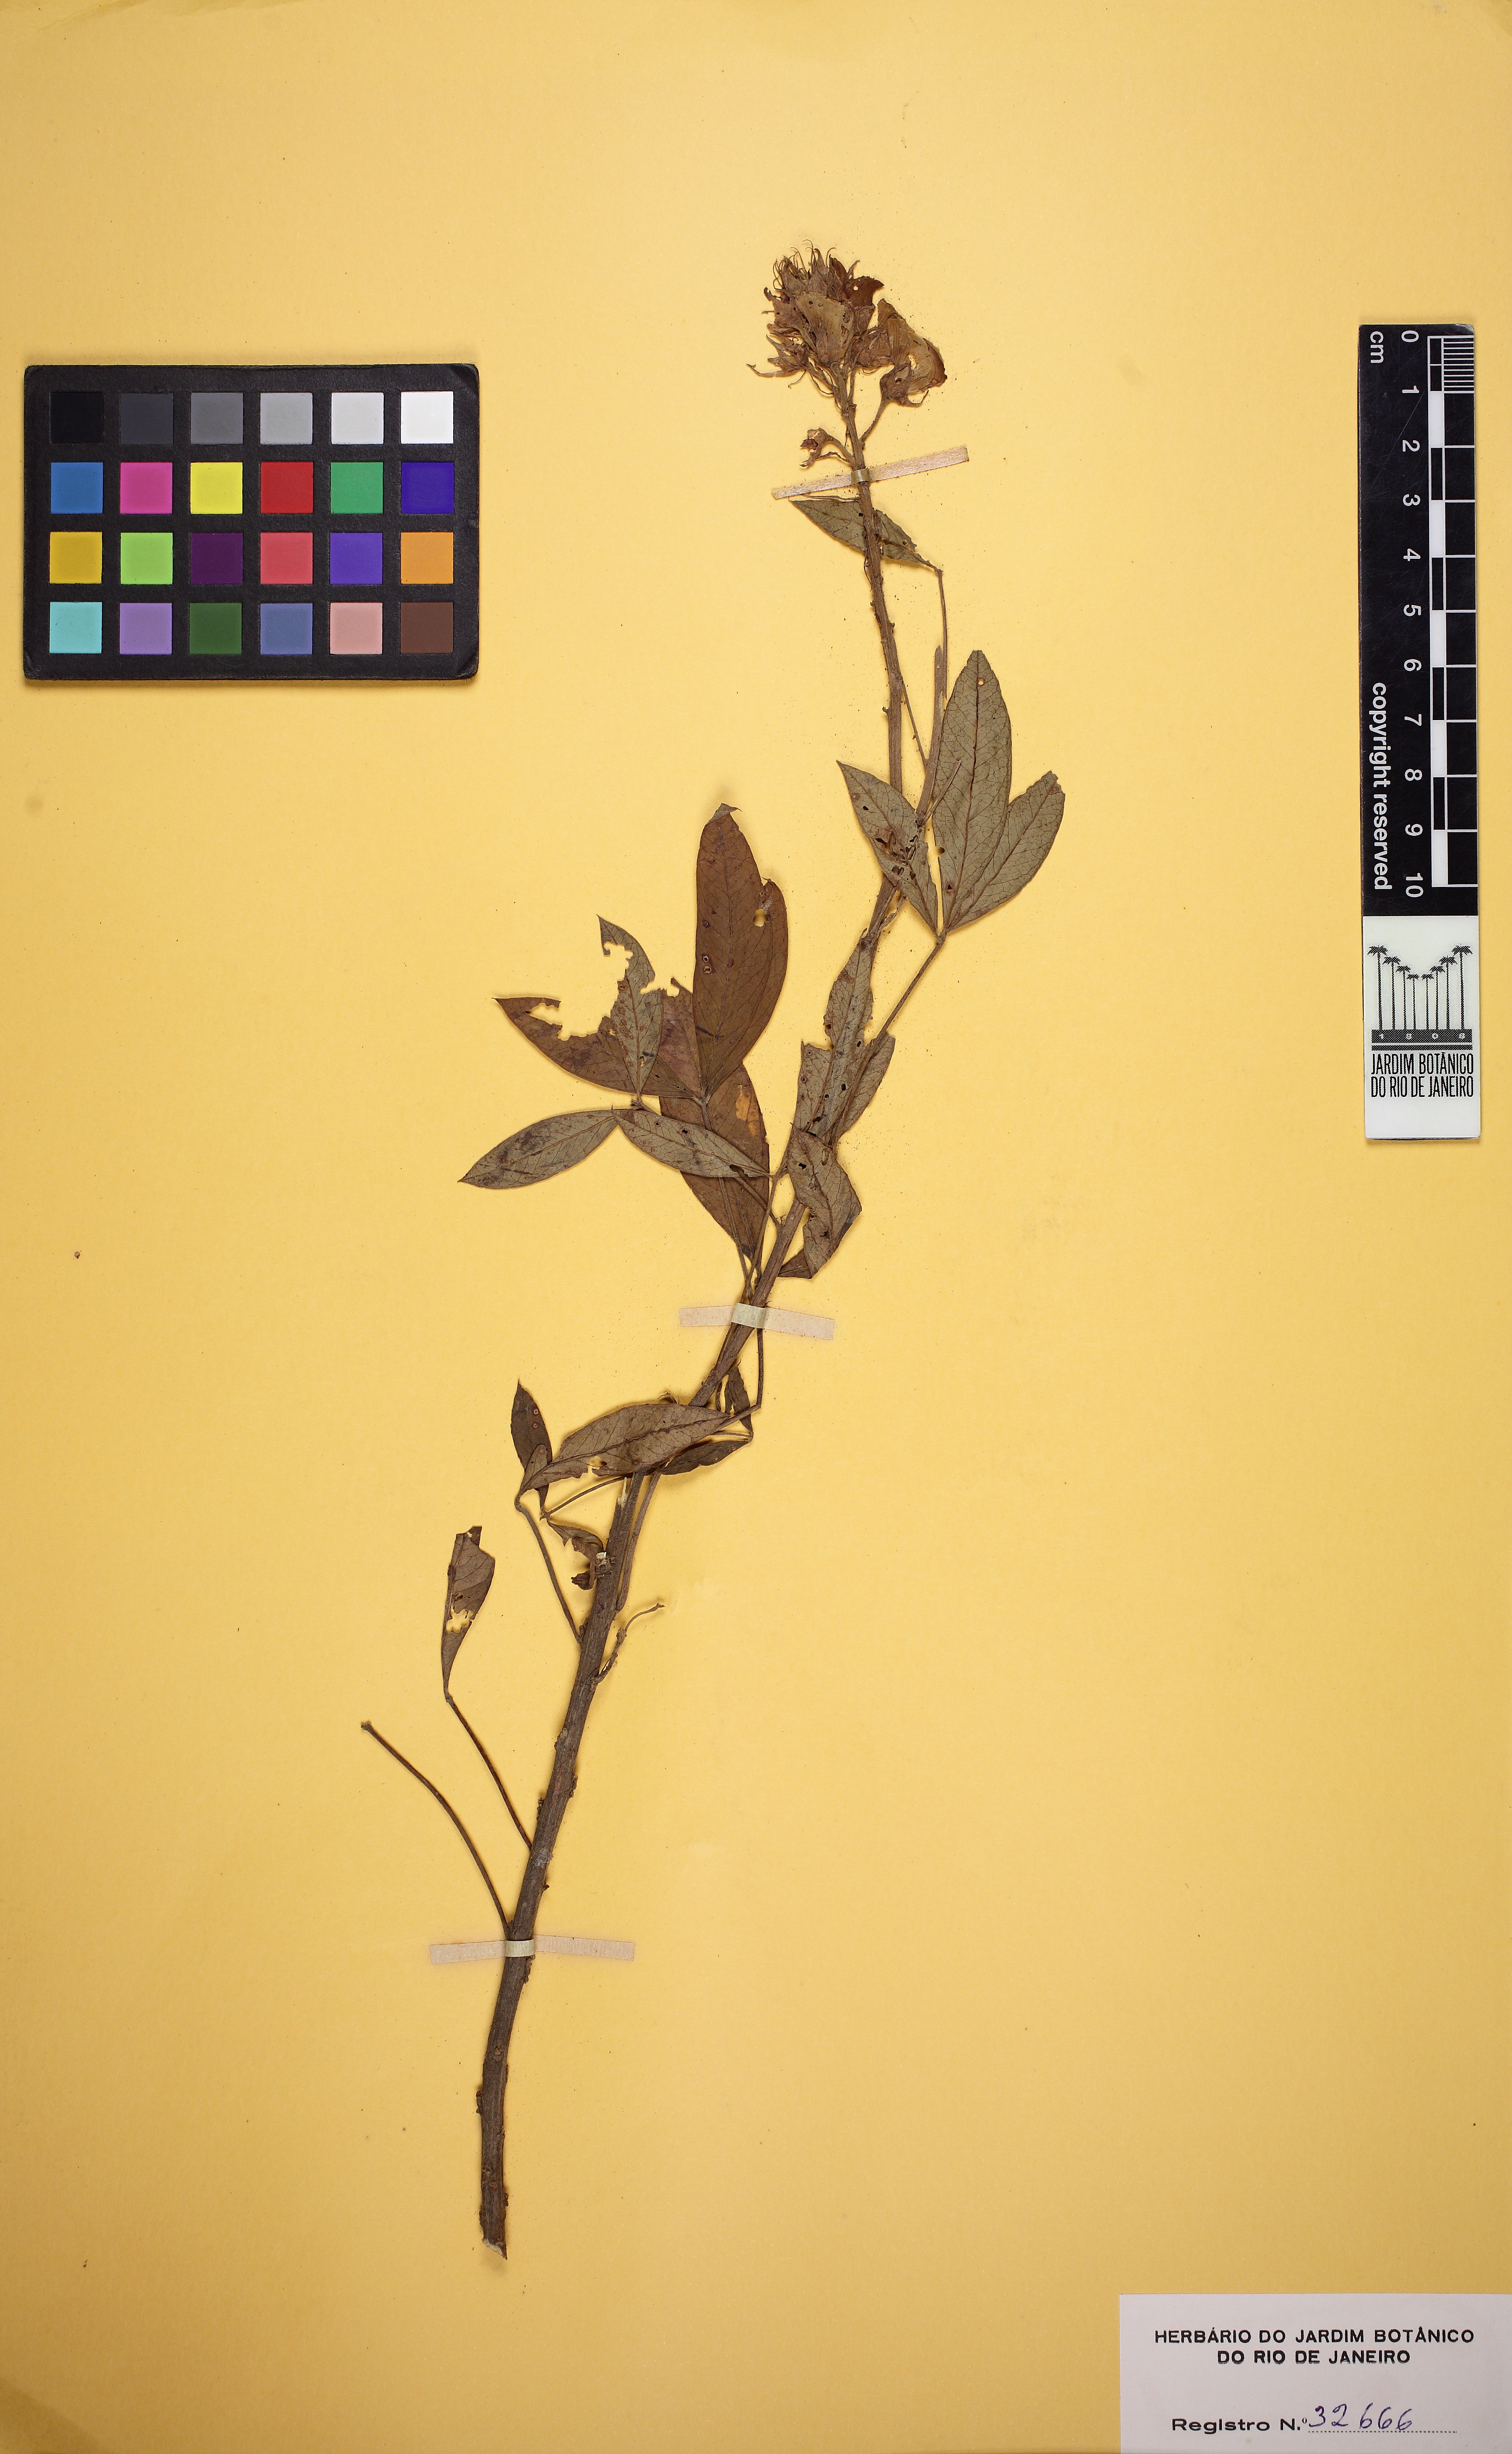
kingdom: Plantae
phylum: Tracheophyta
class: Magnoliopsida
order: Fabales
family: Fabaceae
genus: Crotalaria
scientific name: Crotalaria micans
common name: Caracas rattlebox
